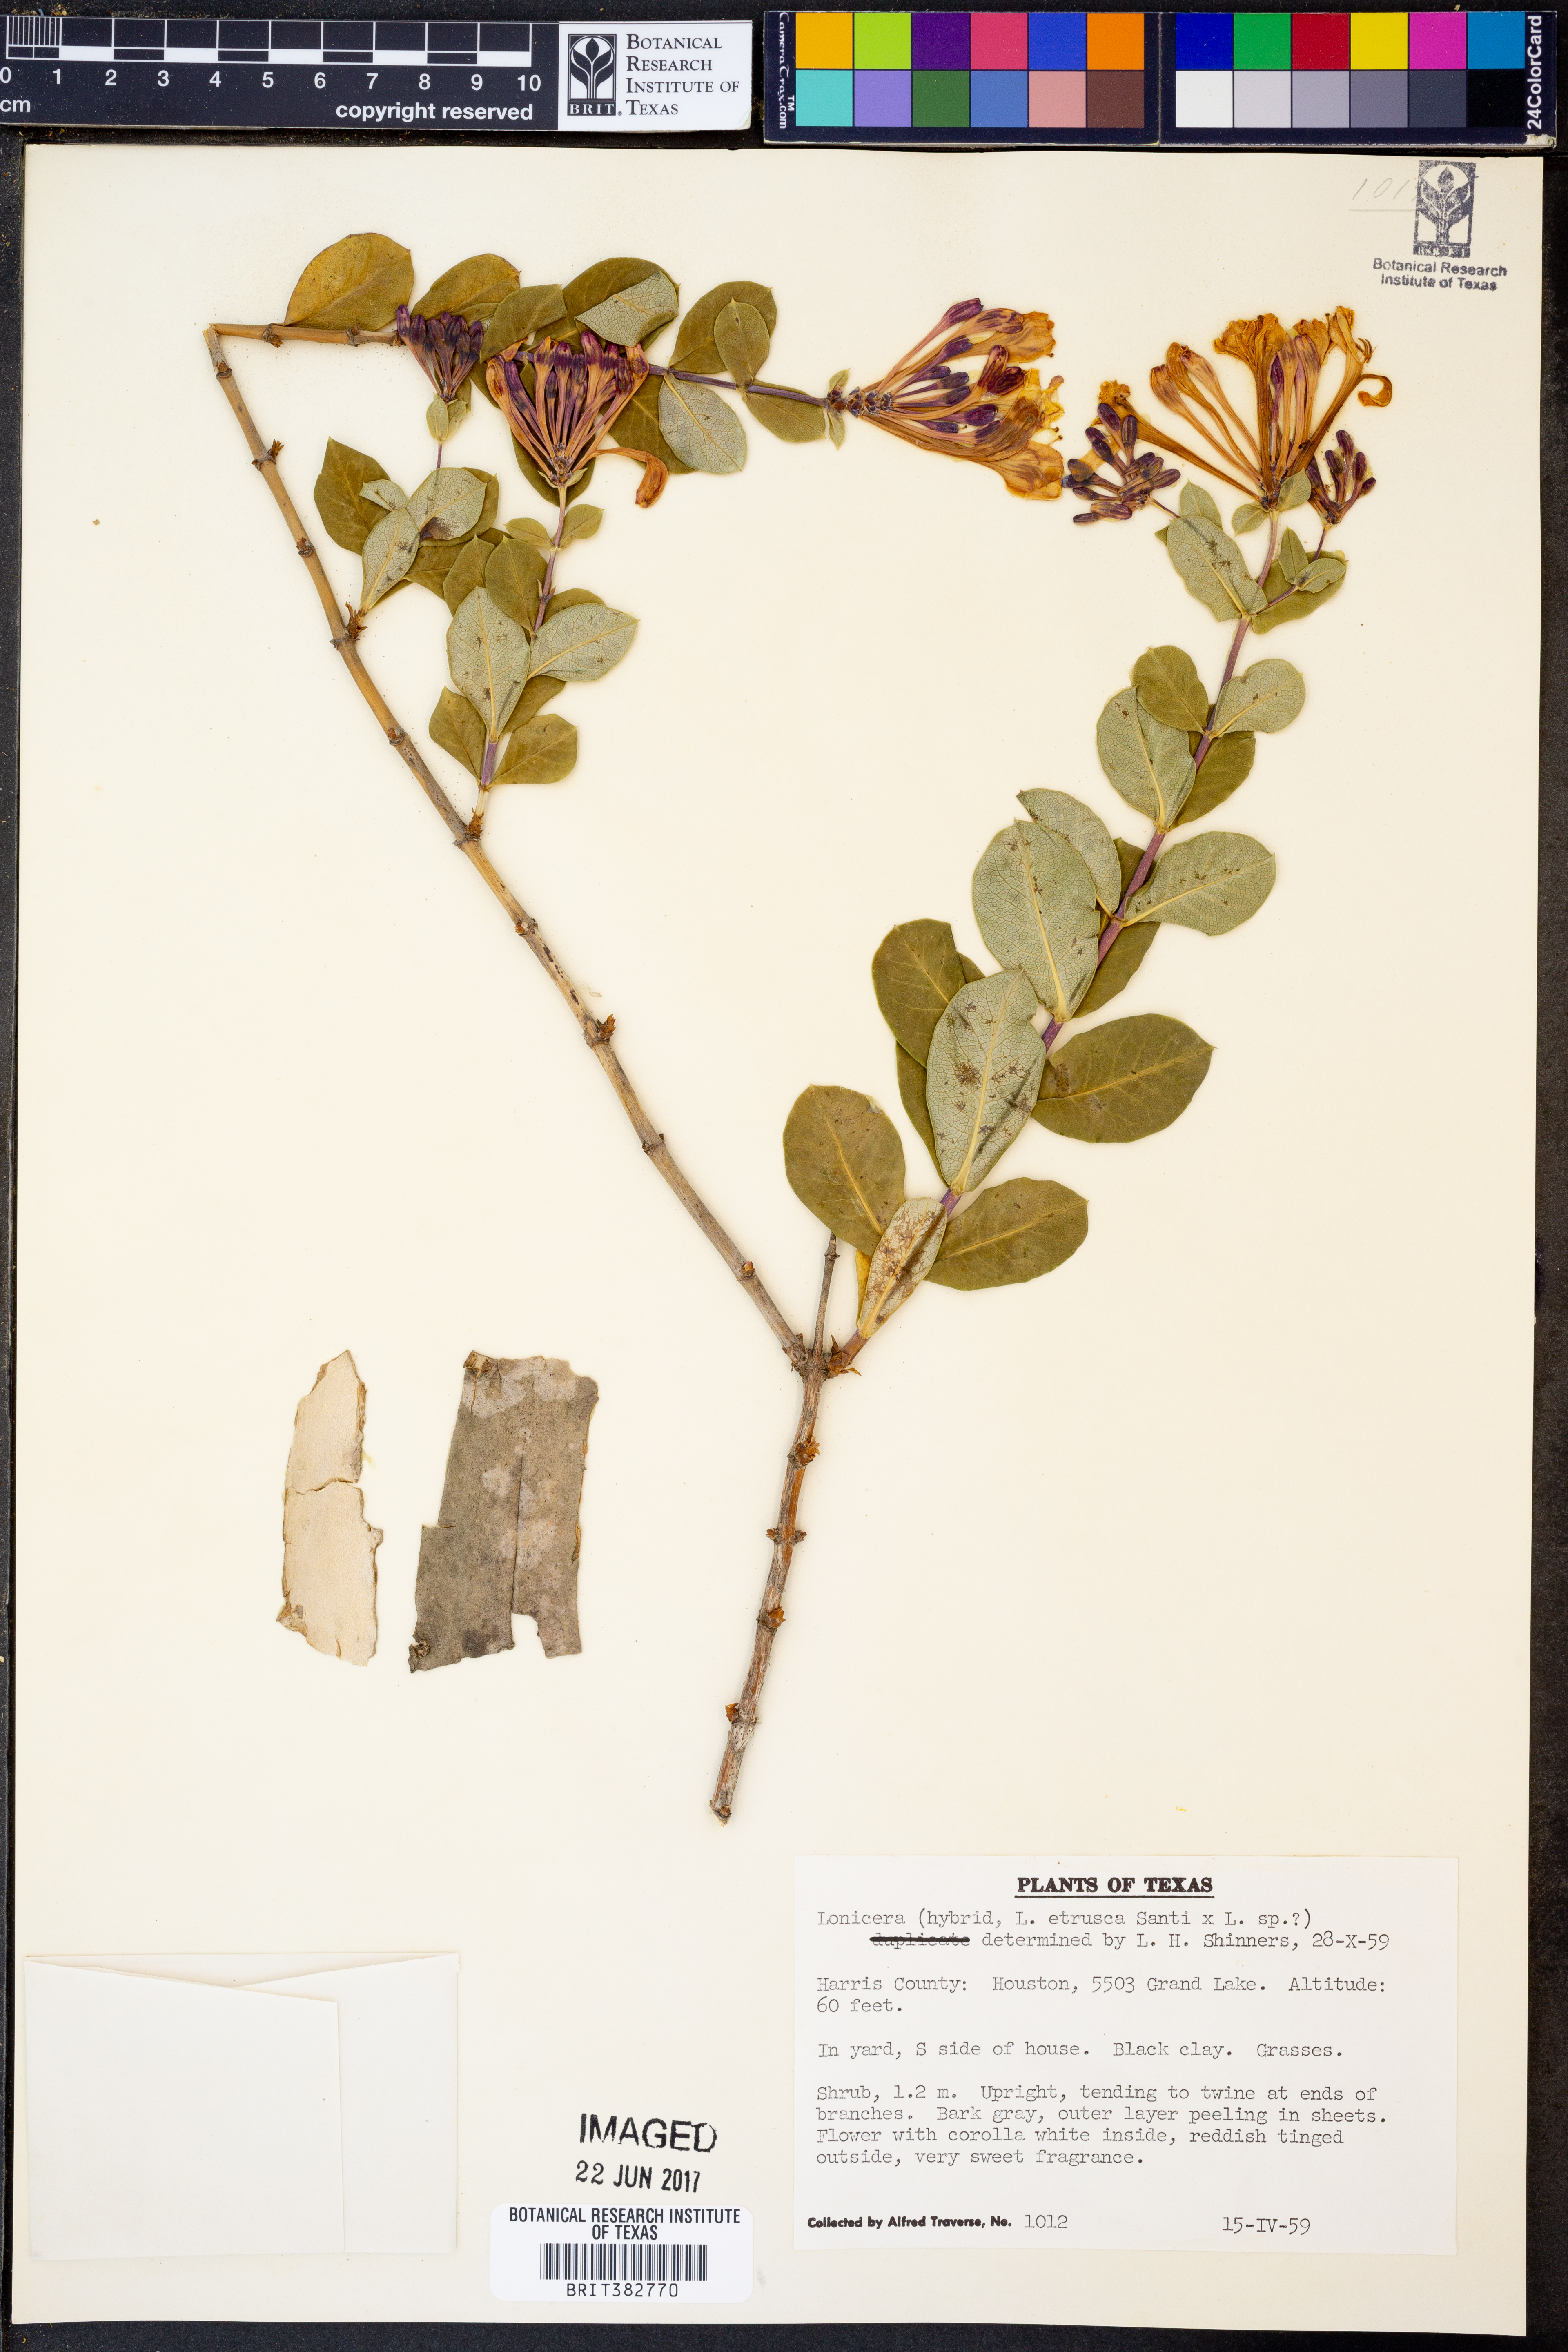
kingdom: Plantae
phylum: Tracheophyta
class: Magnoliopsida
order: Dipsacales
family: Caprifoliaceae
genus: Lonicera
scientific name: Lonicera
